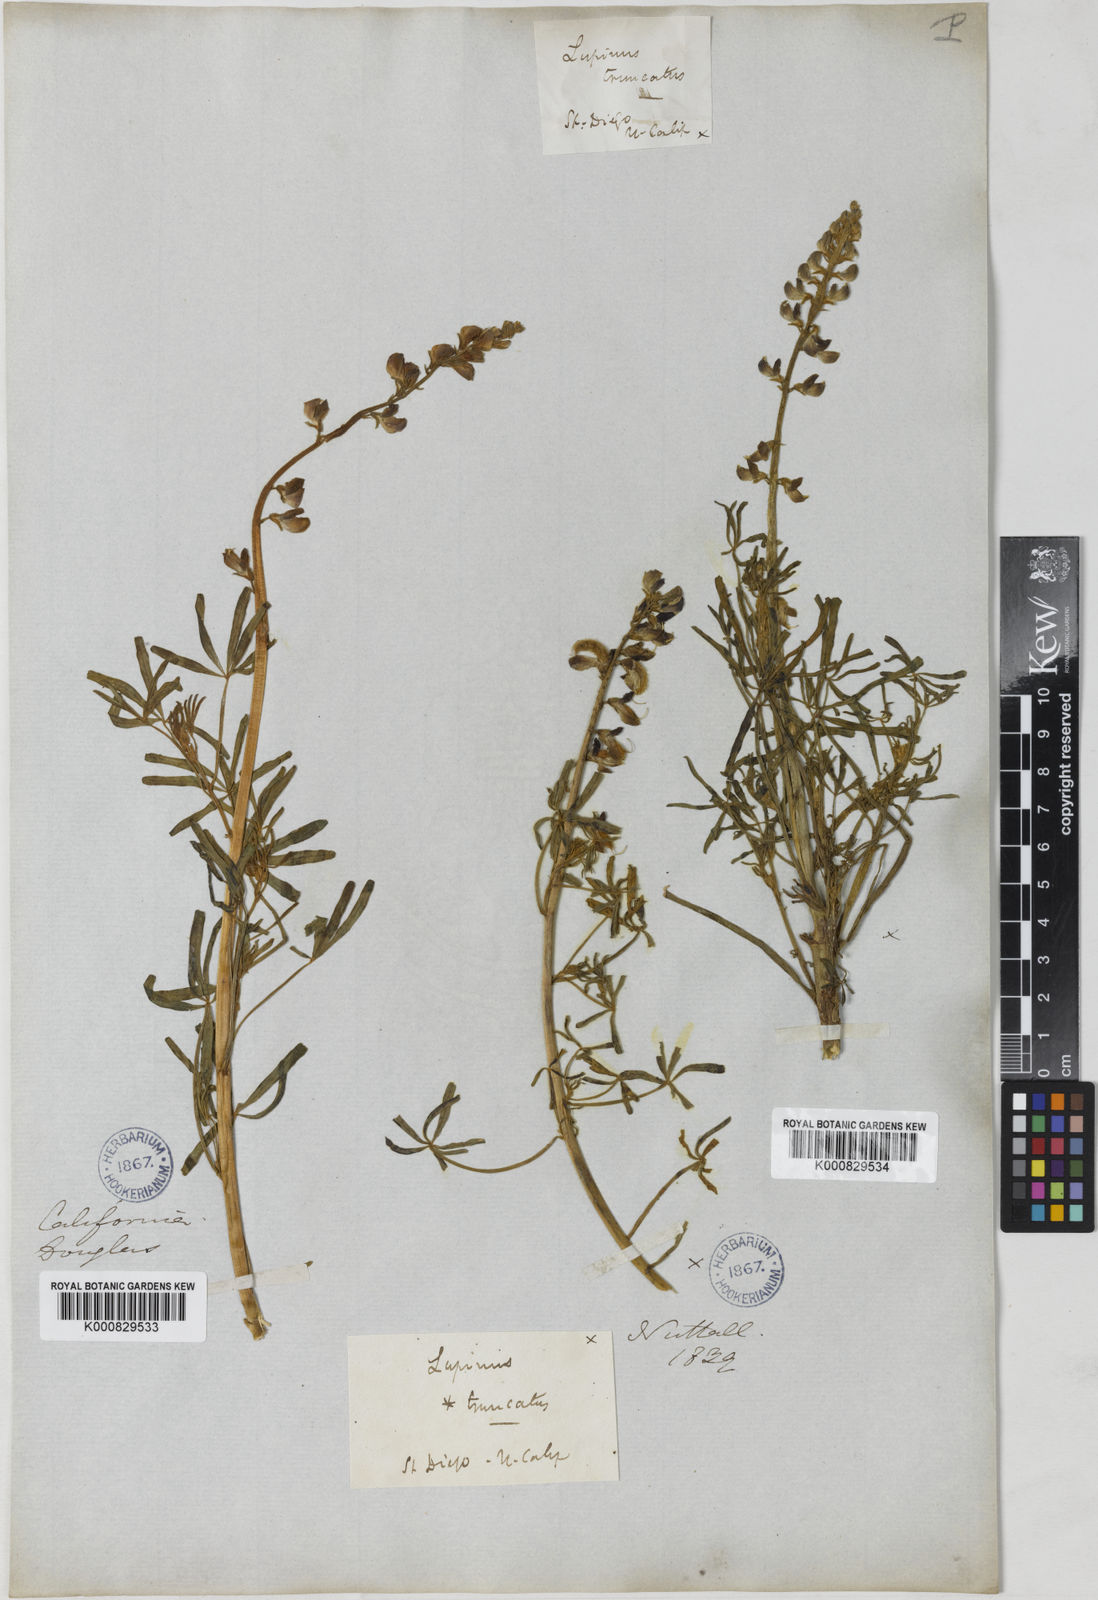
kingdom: Plantae
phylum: Tracheophyta
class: Magnoliopsida
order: Fabales
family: Fabaceae
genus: Lupinus
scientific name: Lupinus truncatus
